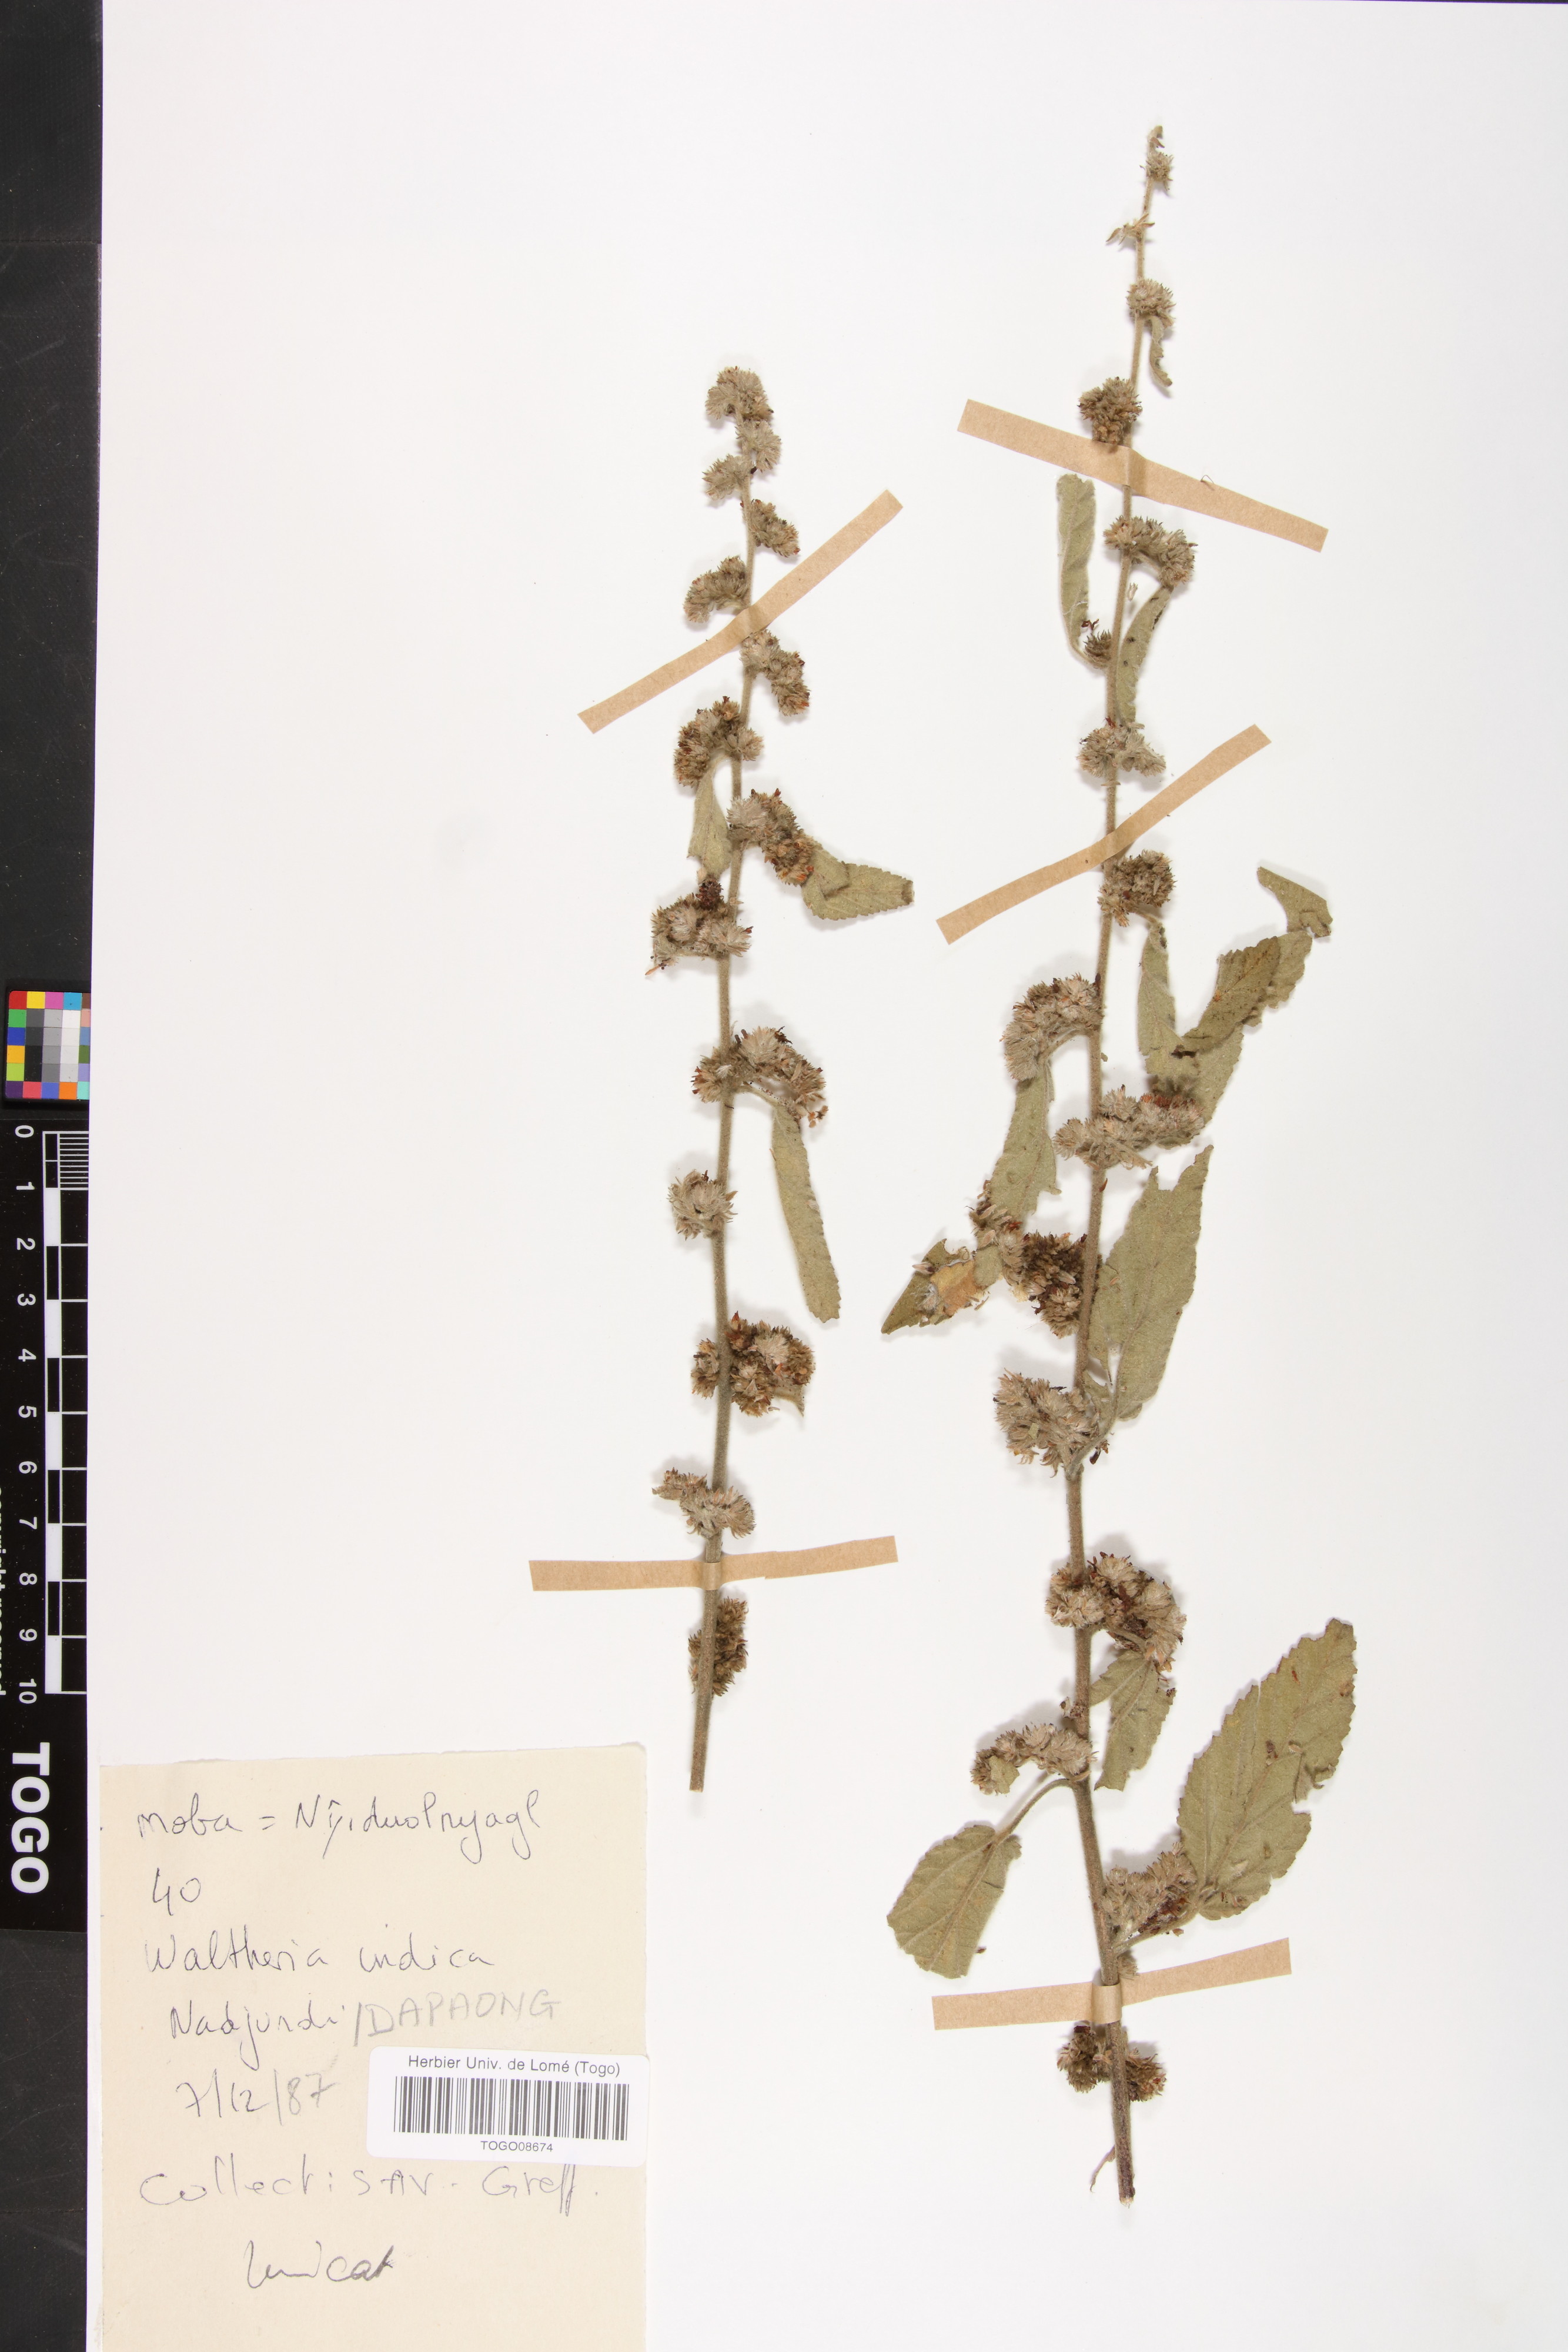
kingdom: Plantae
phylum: Tracheophyta
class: Magnoliopsida
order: Malvales
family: Malvaceae
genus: Waltheria
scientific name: Waltheria indica
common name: Leather-coat
